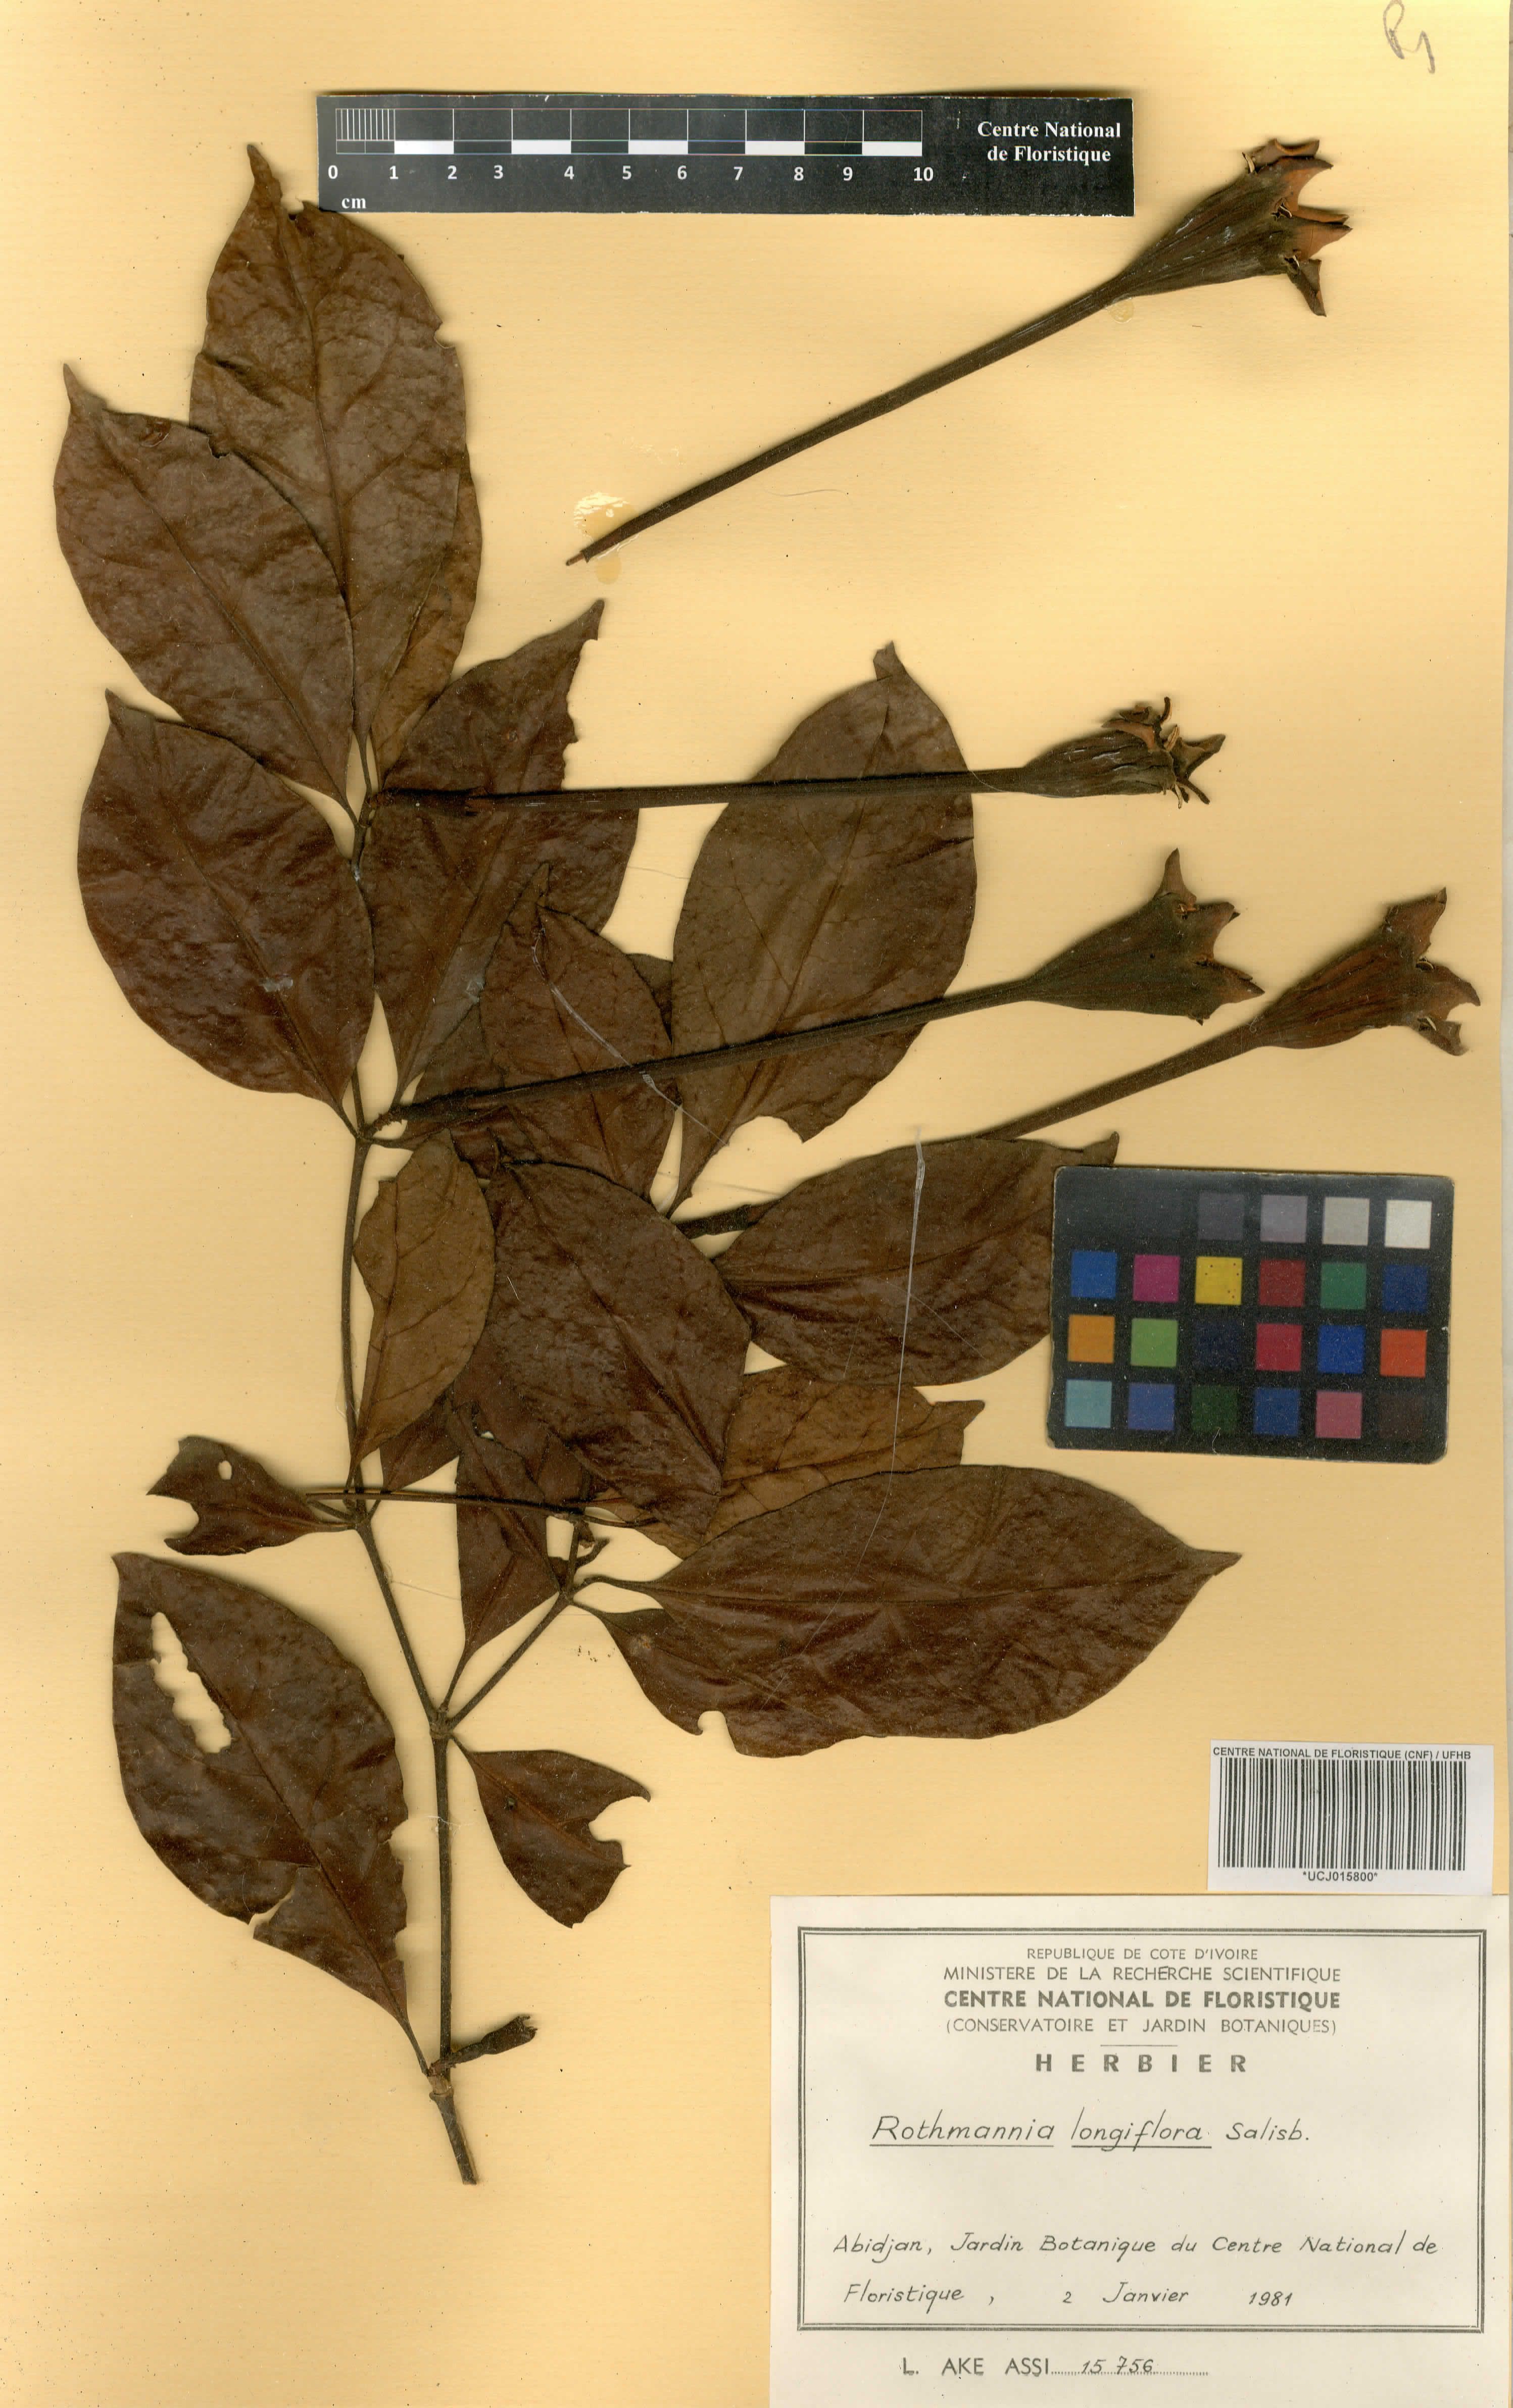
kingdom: Plantae
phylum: Tracheophyta
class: Magnoliopsida
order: Gentianales
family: Rubiaceae
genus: Rothmannia
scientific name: Rothmannia longiflora
